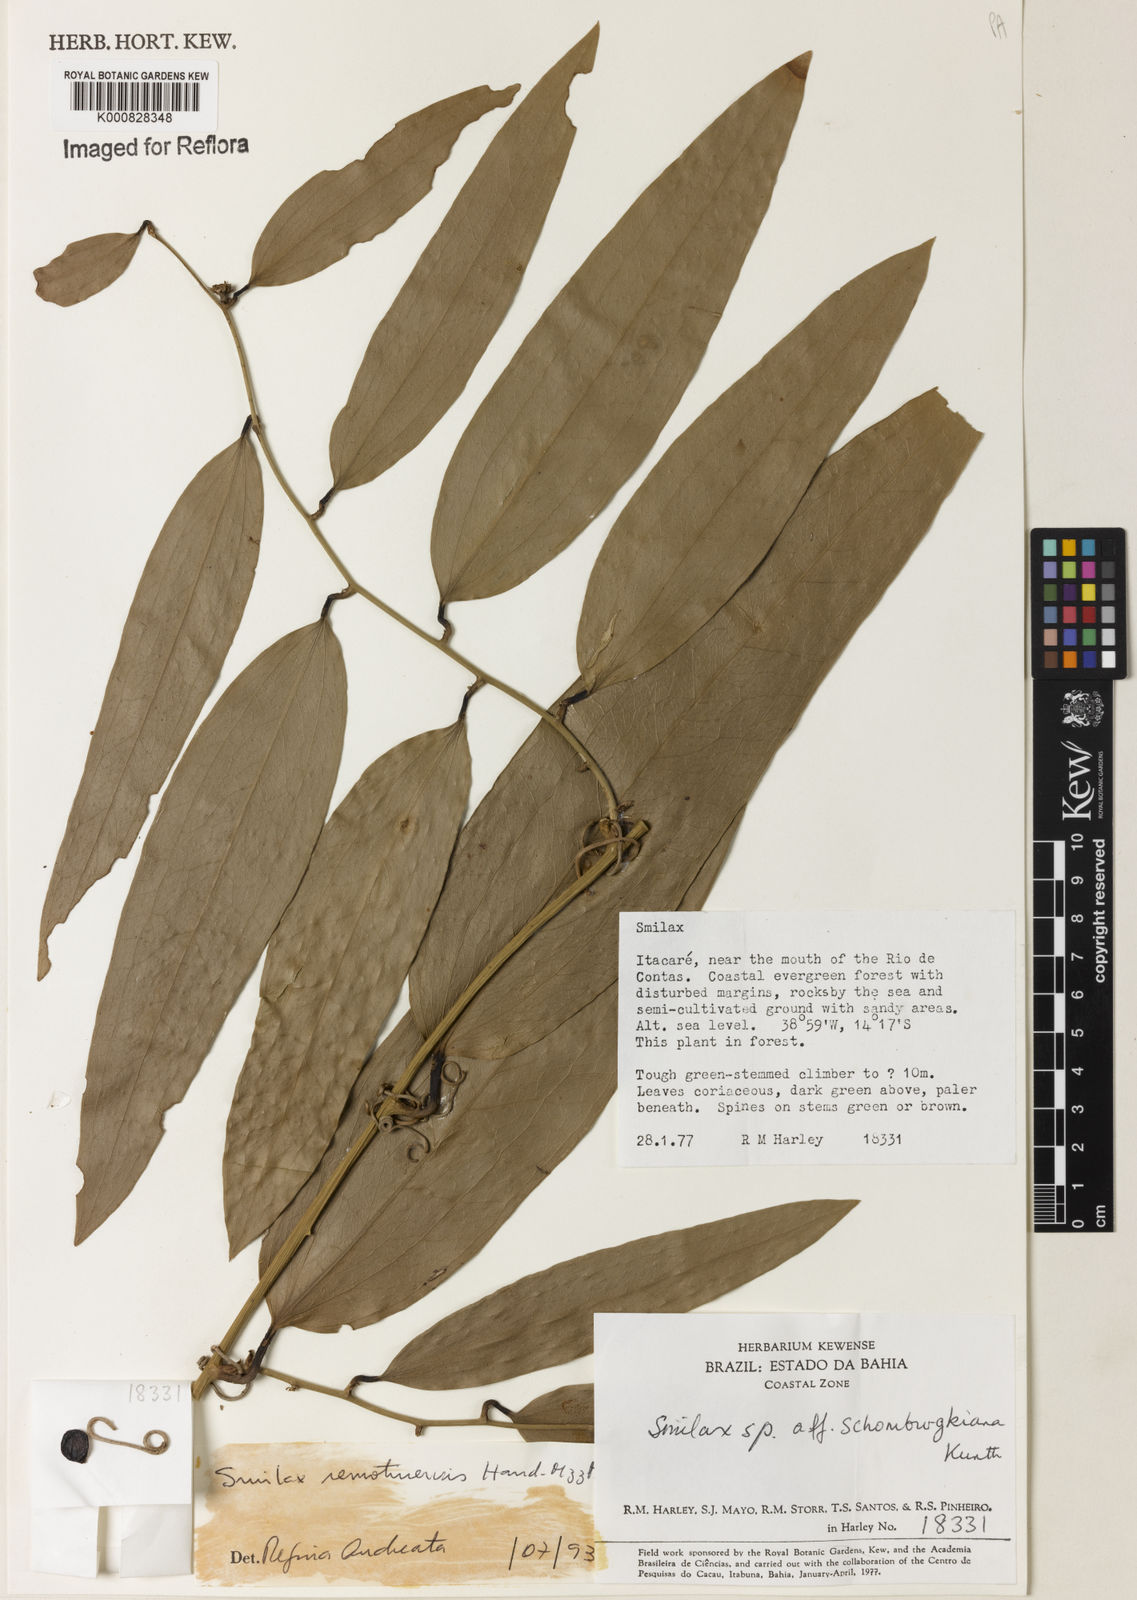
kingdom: Plantae
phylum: Tracheophyta
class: Liliopsida
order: Liliales
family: Smilacaceae
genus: Smilax
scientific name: Smilax remotinervis
